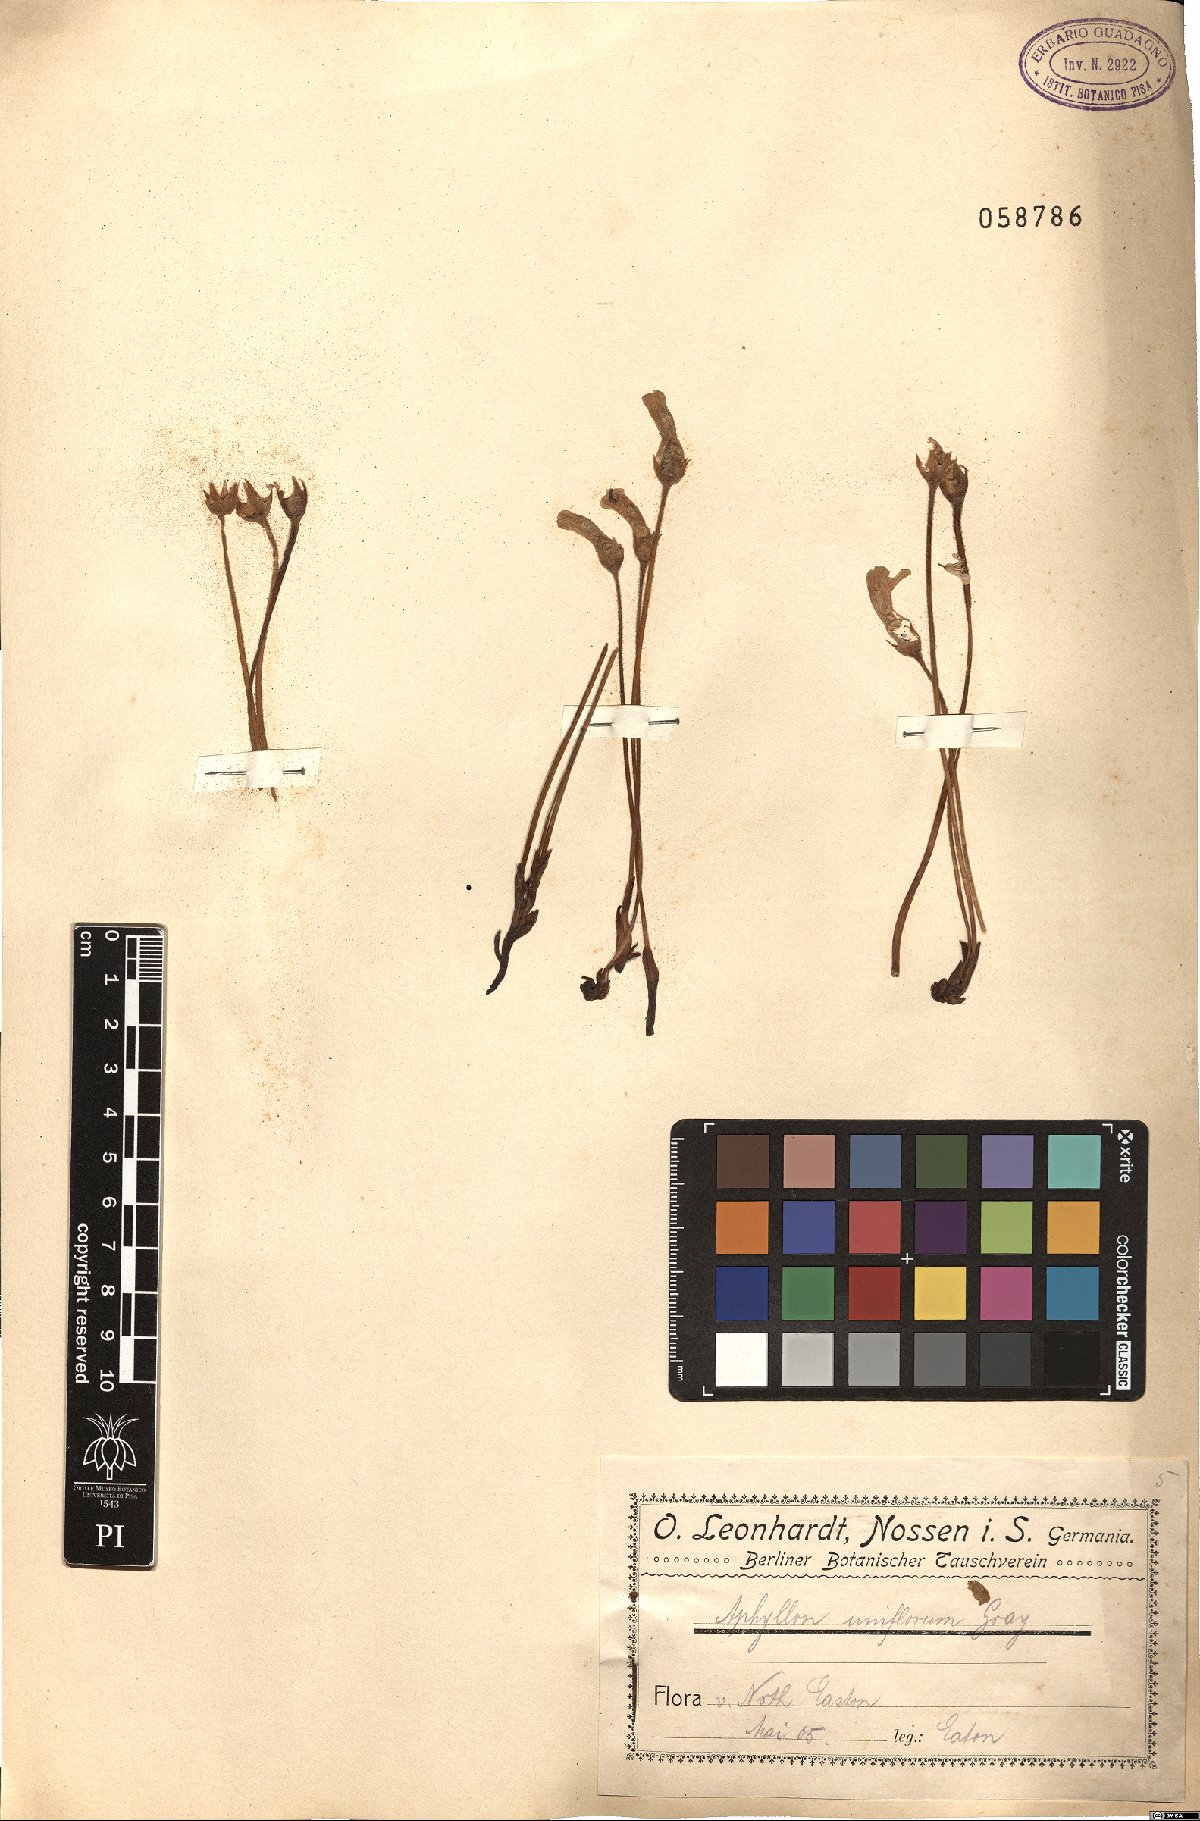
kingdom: Plantae
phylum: Tracheophyta
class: Magnoliopsida
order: Lamiales
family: Orobanchaceae
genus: Aphyllon
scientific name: Aphyllon uniflorum
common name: One-flowered broomrape
